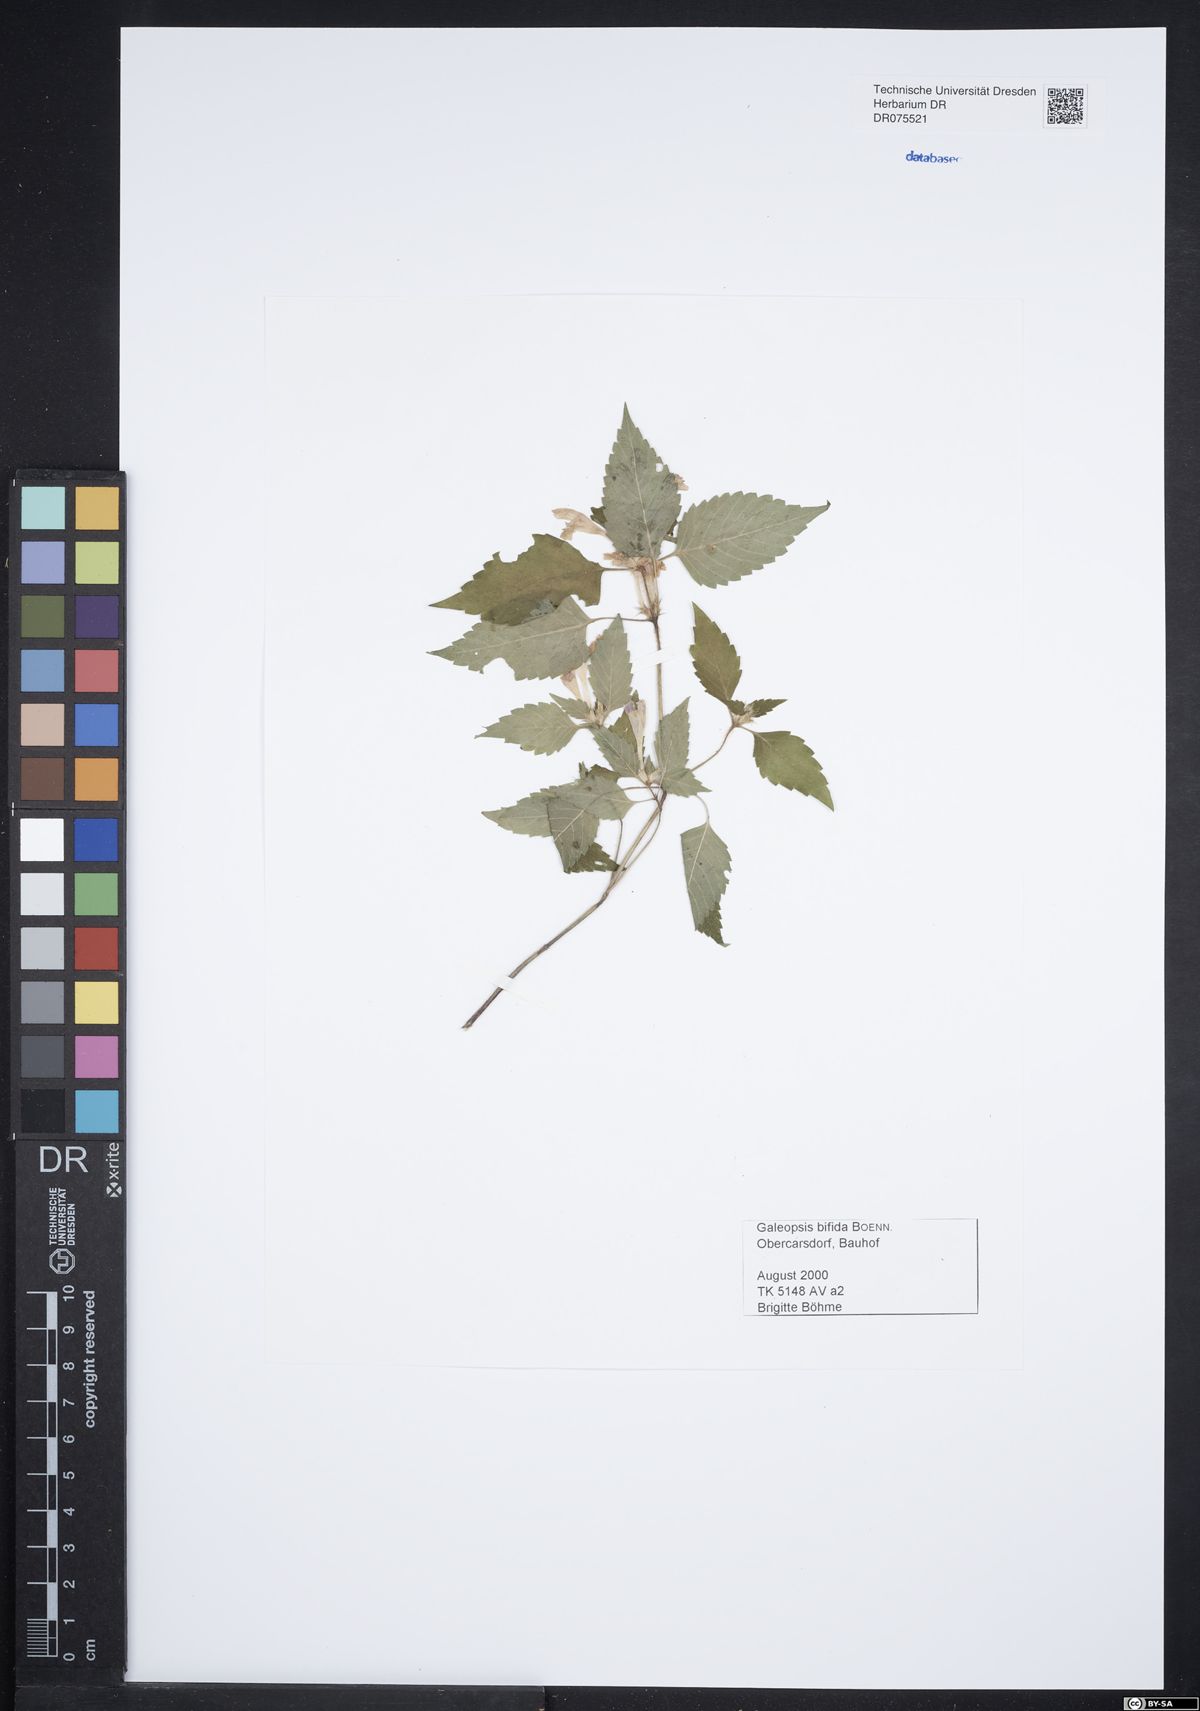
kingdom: Plantae
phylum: Tracheophyta
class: Magnoliopsida
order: Lamiales
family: Lamiaceae
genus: Galeopsis
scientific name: Galeopsis bifida
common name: Bifid hemp-nettle
